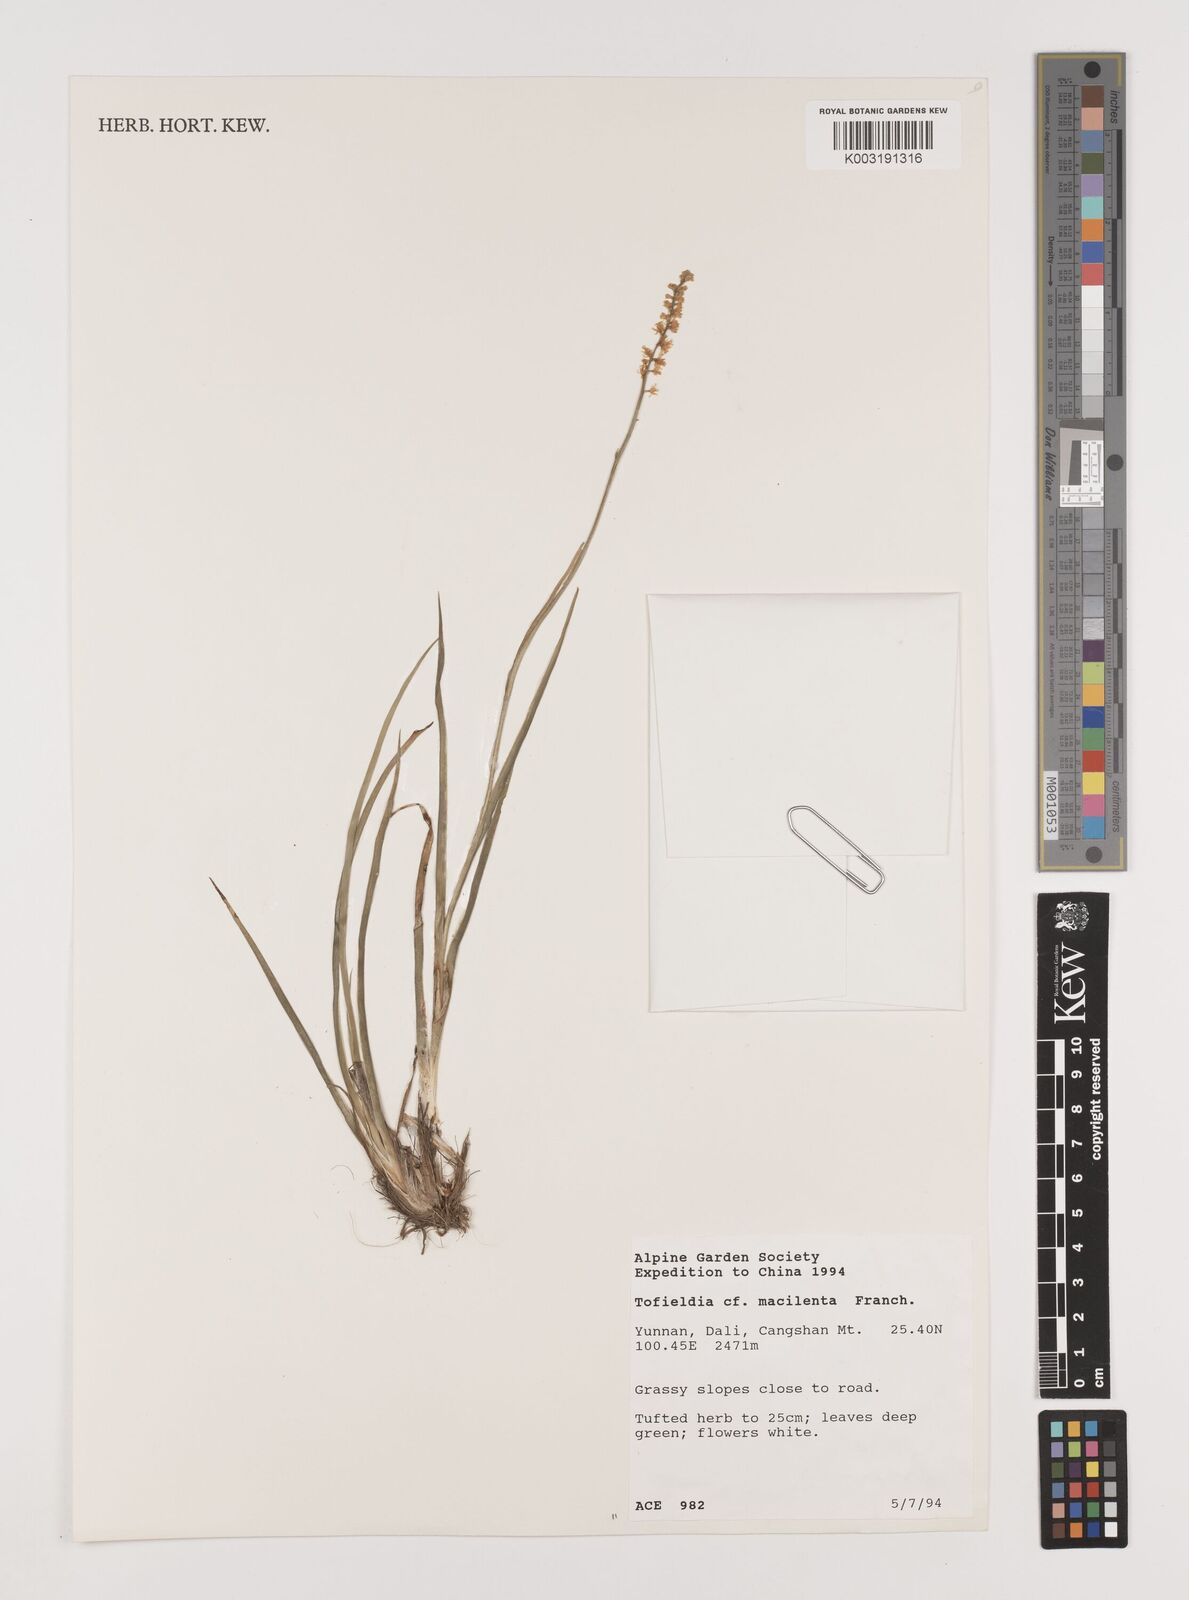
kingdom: Plantae
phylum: Tracheophyta
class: Liliopsida
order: Alismatales
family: Tofieldiaceae
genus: Tofieldia
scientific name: Tofieldia thibetica
